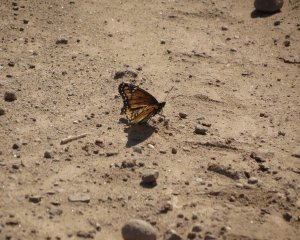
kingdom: Animalia
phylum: Arthropoda
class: Insecta
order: Lepidoptera
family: Nymphalidae
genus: Limenitis
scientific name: Limenitis archippus
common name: Viceroy
